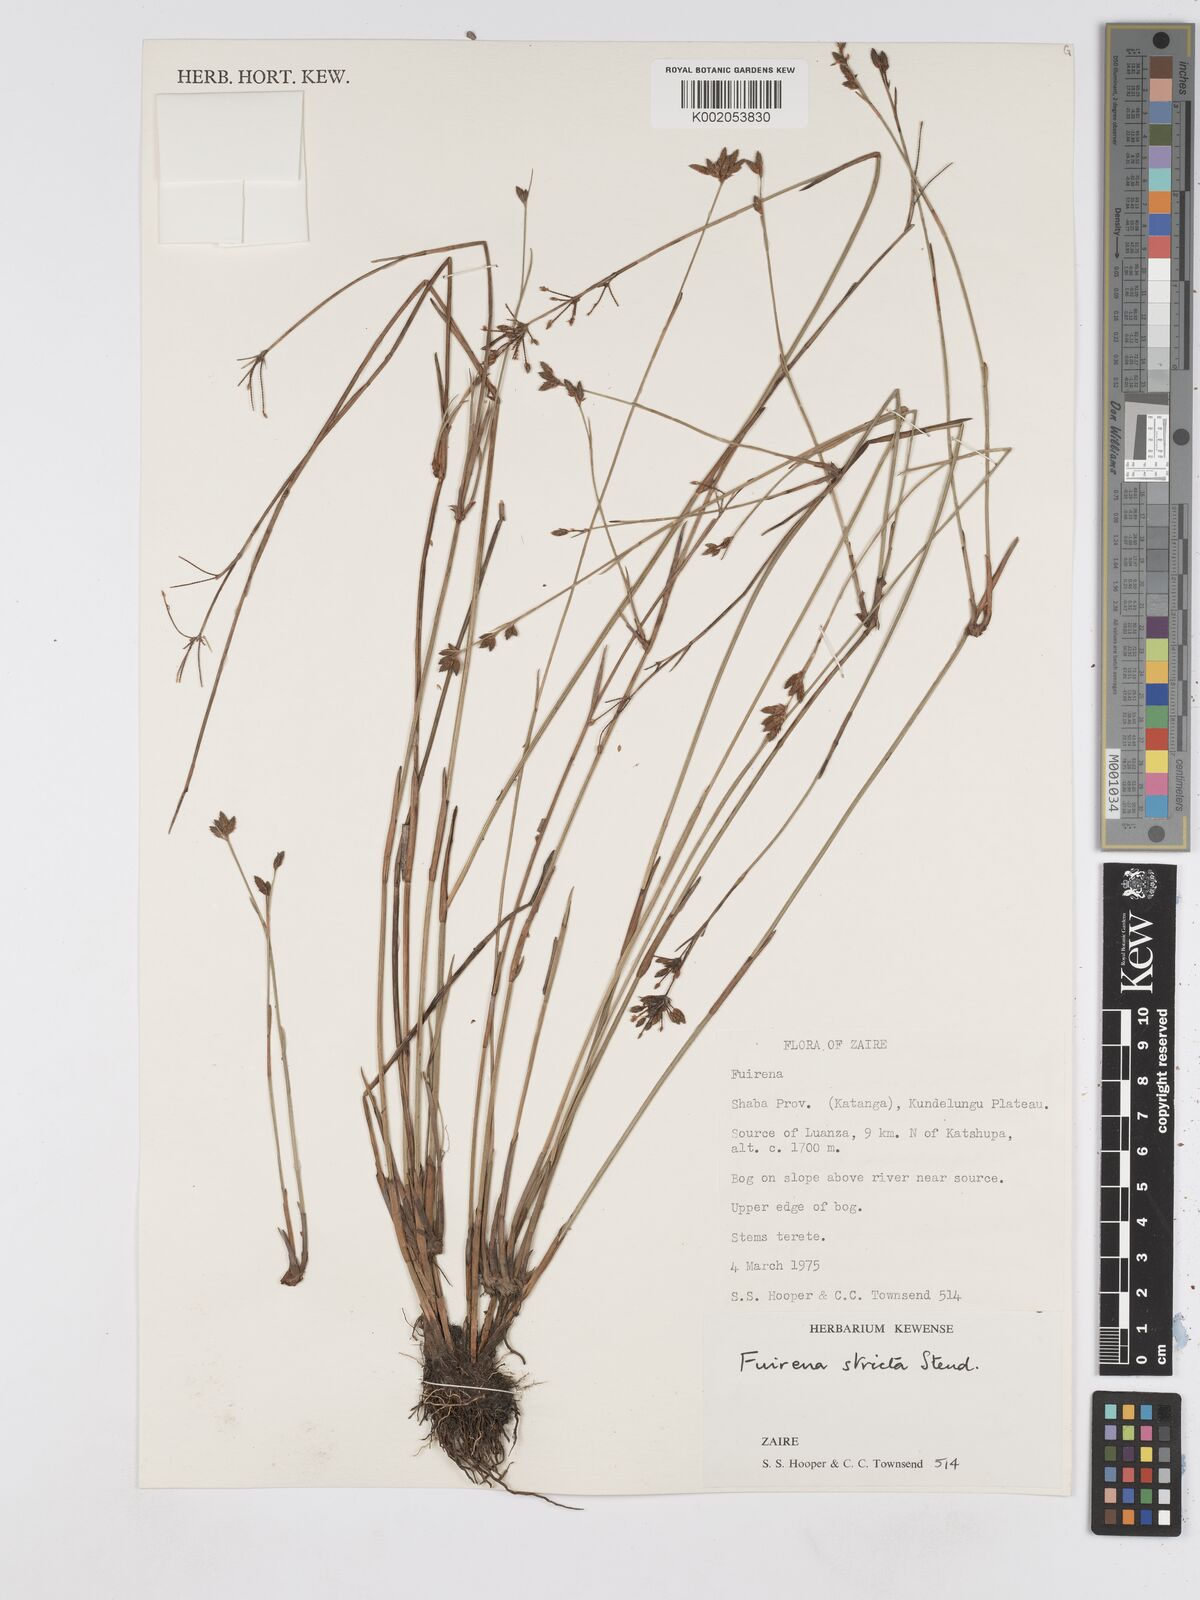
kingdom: Plantae
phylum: Tracheophyta
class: Liliopsida
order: Poales
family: Cyperaceae
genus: Fuirena
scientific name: Fuirena stricta
